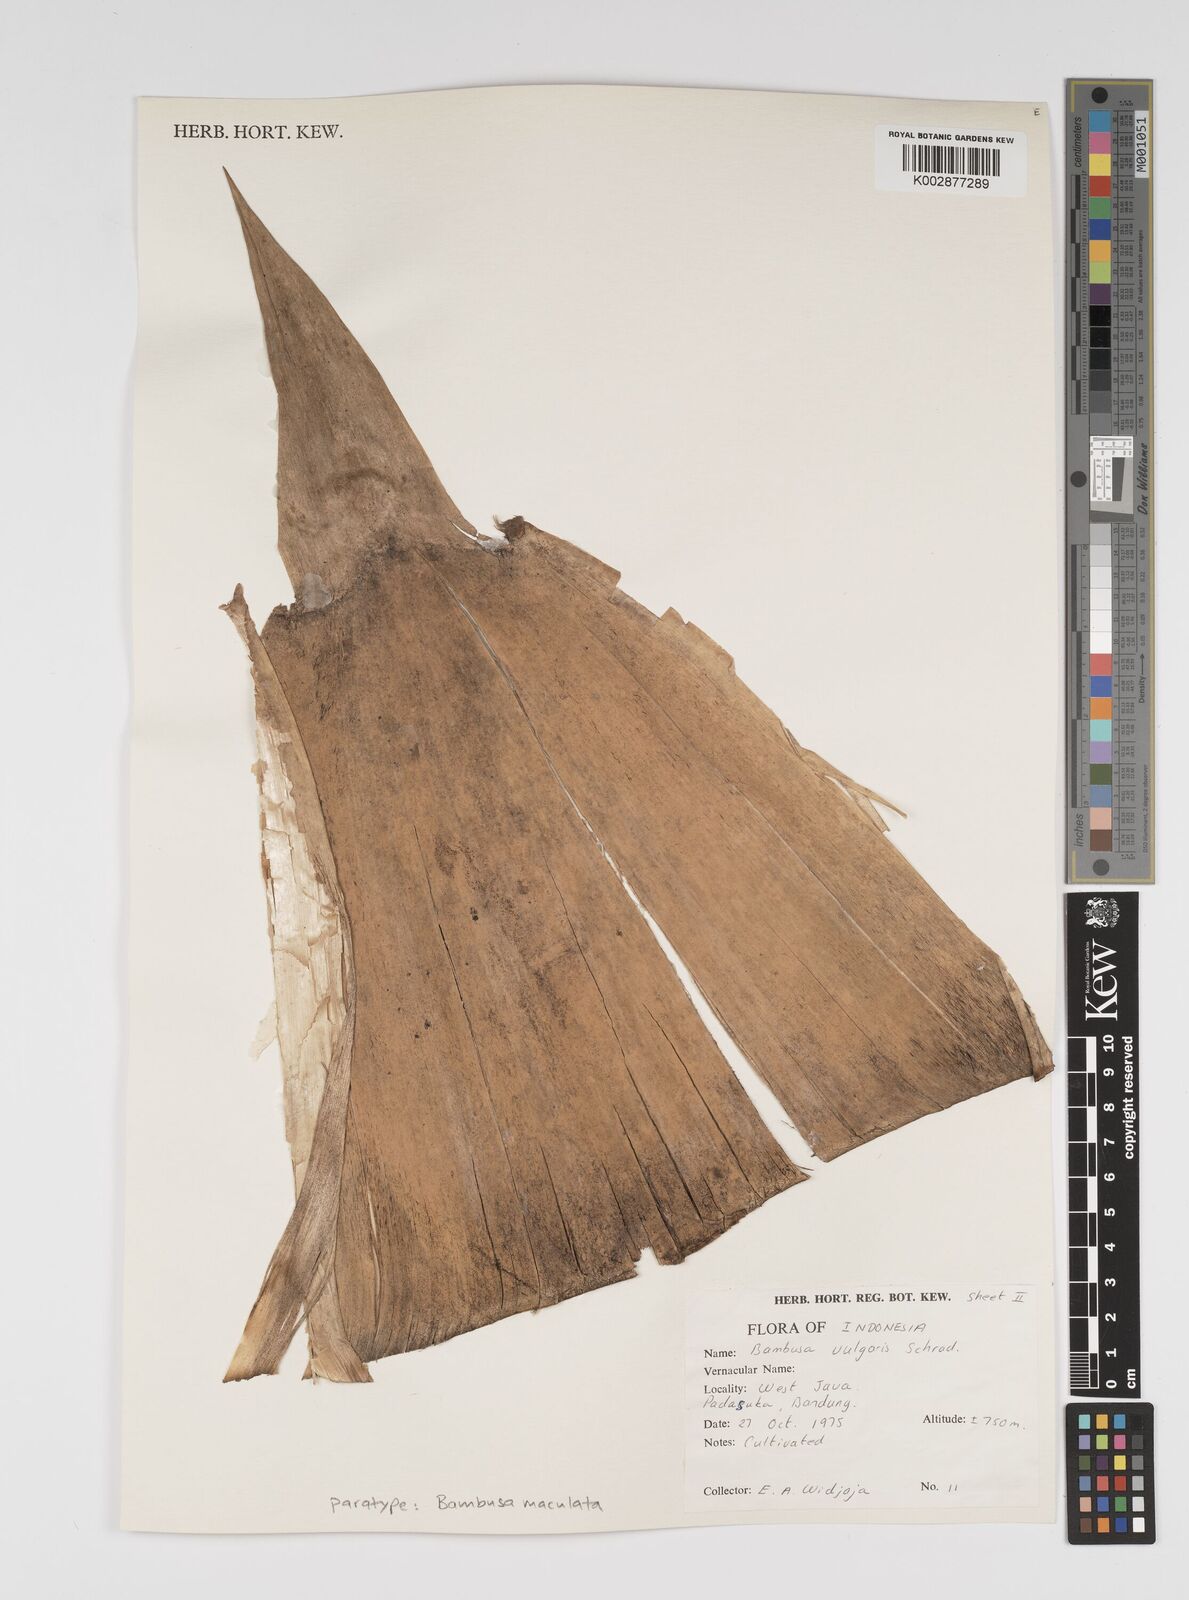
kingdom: Plantae
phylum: Tracheophyta
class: Liliopsida
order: Poales
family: Poaceae
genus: Bambusa
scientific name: Bambusa maculata
